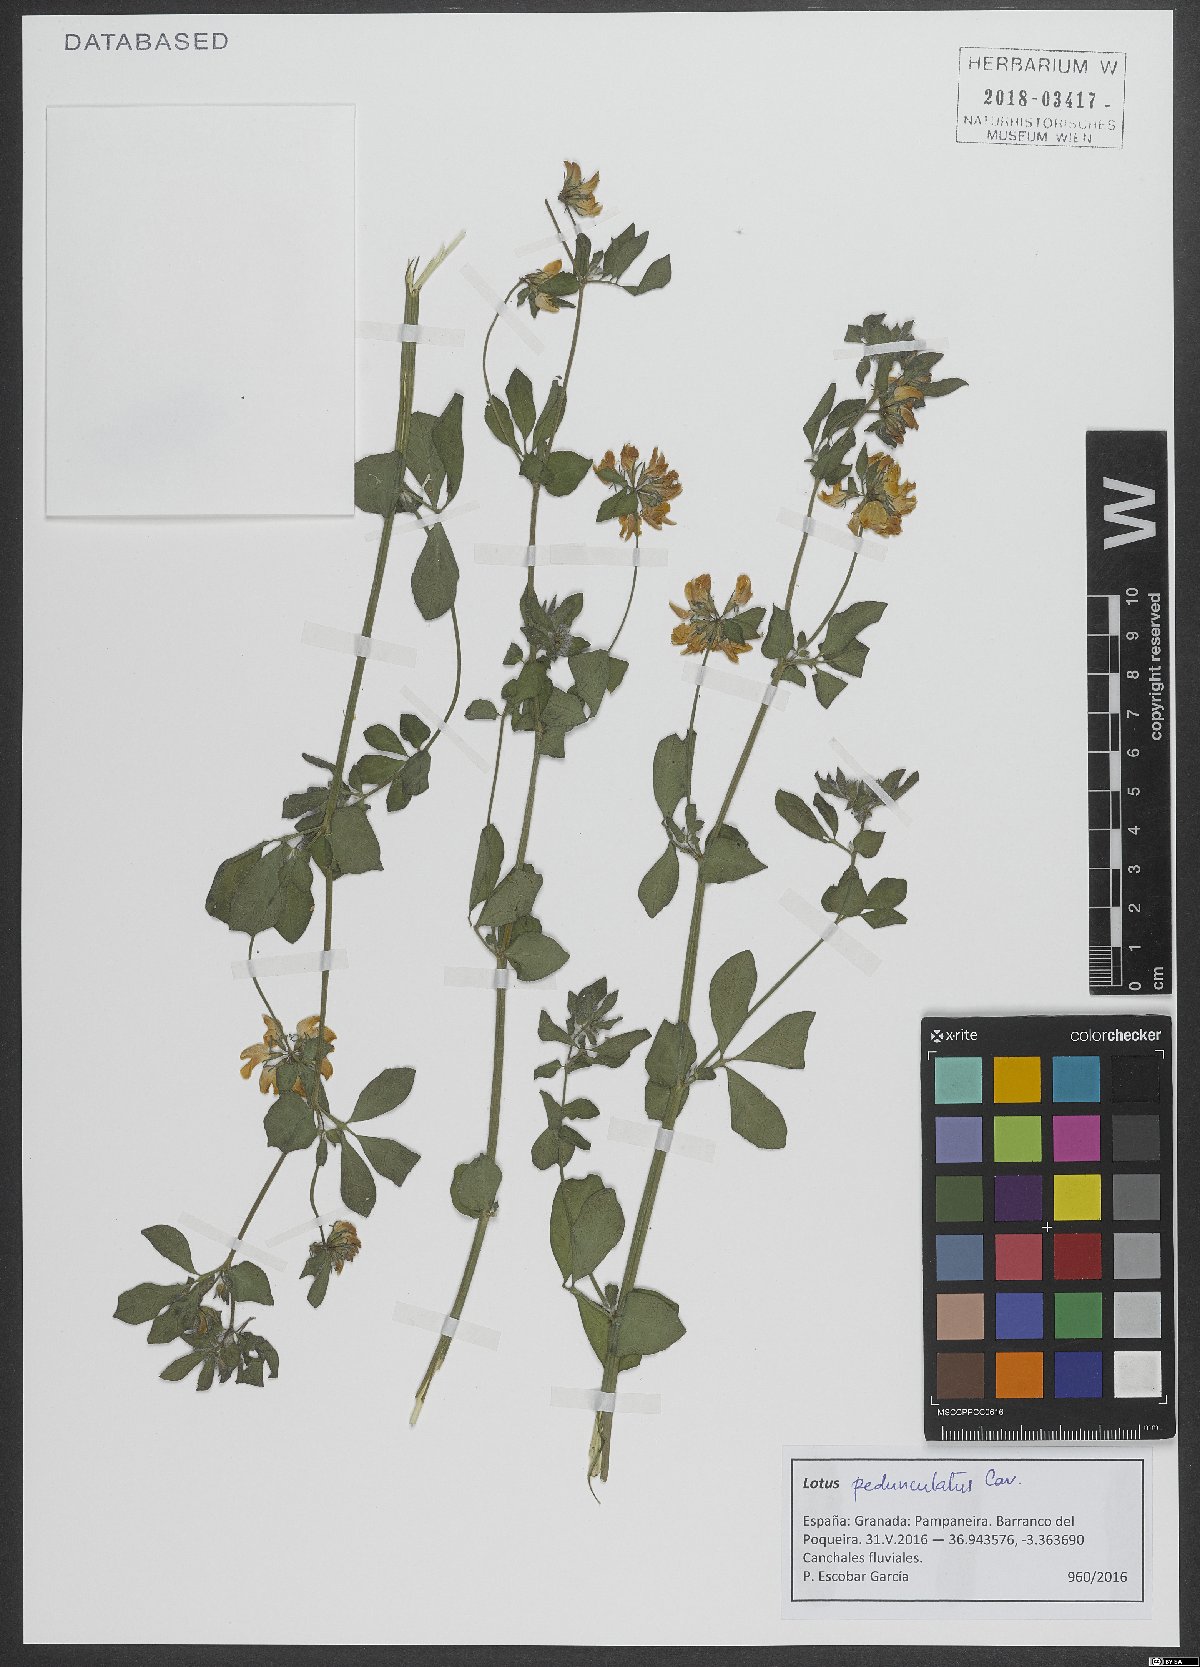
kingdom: Plantae
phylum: Tracheophyta
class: Magnoliopsida
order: Fabales
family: Fabaceae
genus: Lotus
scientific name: Lotus pedunculatus
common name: Greater birdsfoot-trefoil
